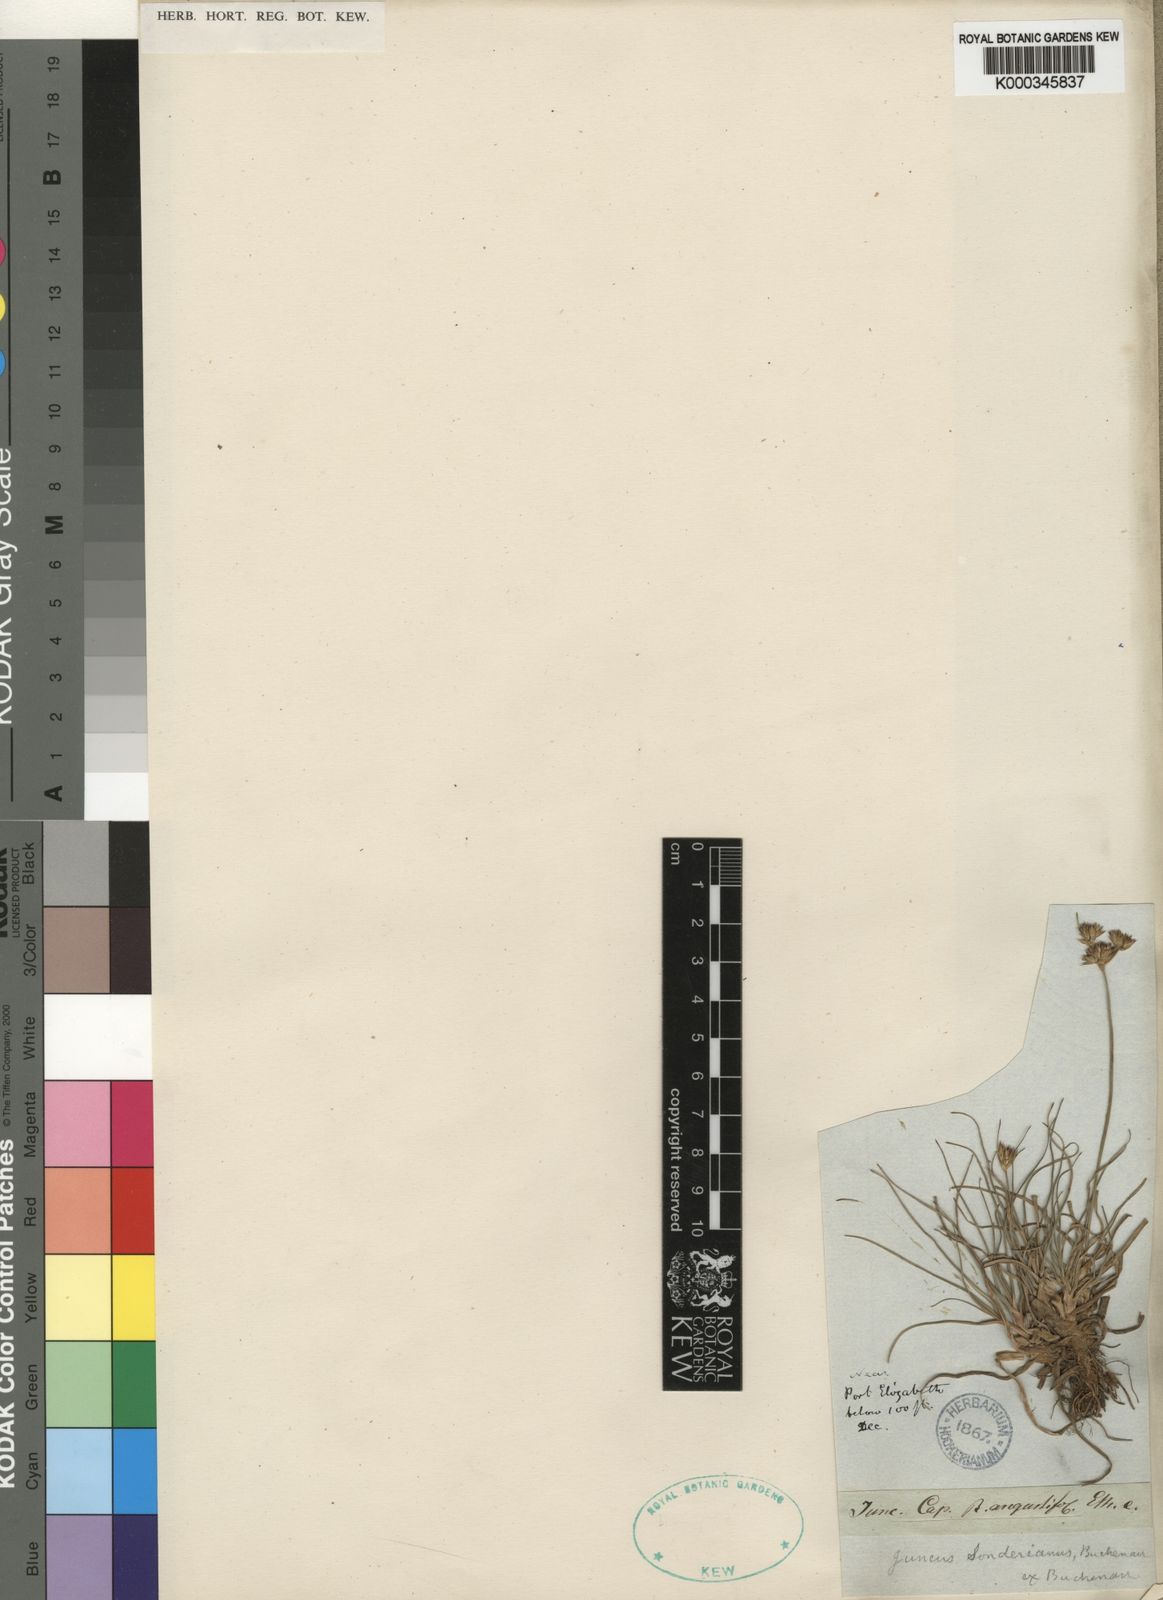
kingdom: Plantae
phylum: Tracheophyta
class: Liliopsida
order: Poales
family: Juncaceae
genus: Juncus
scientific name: Juncus sonderianus
